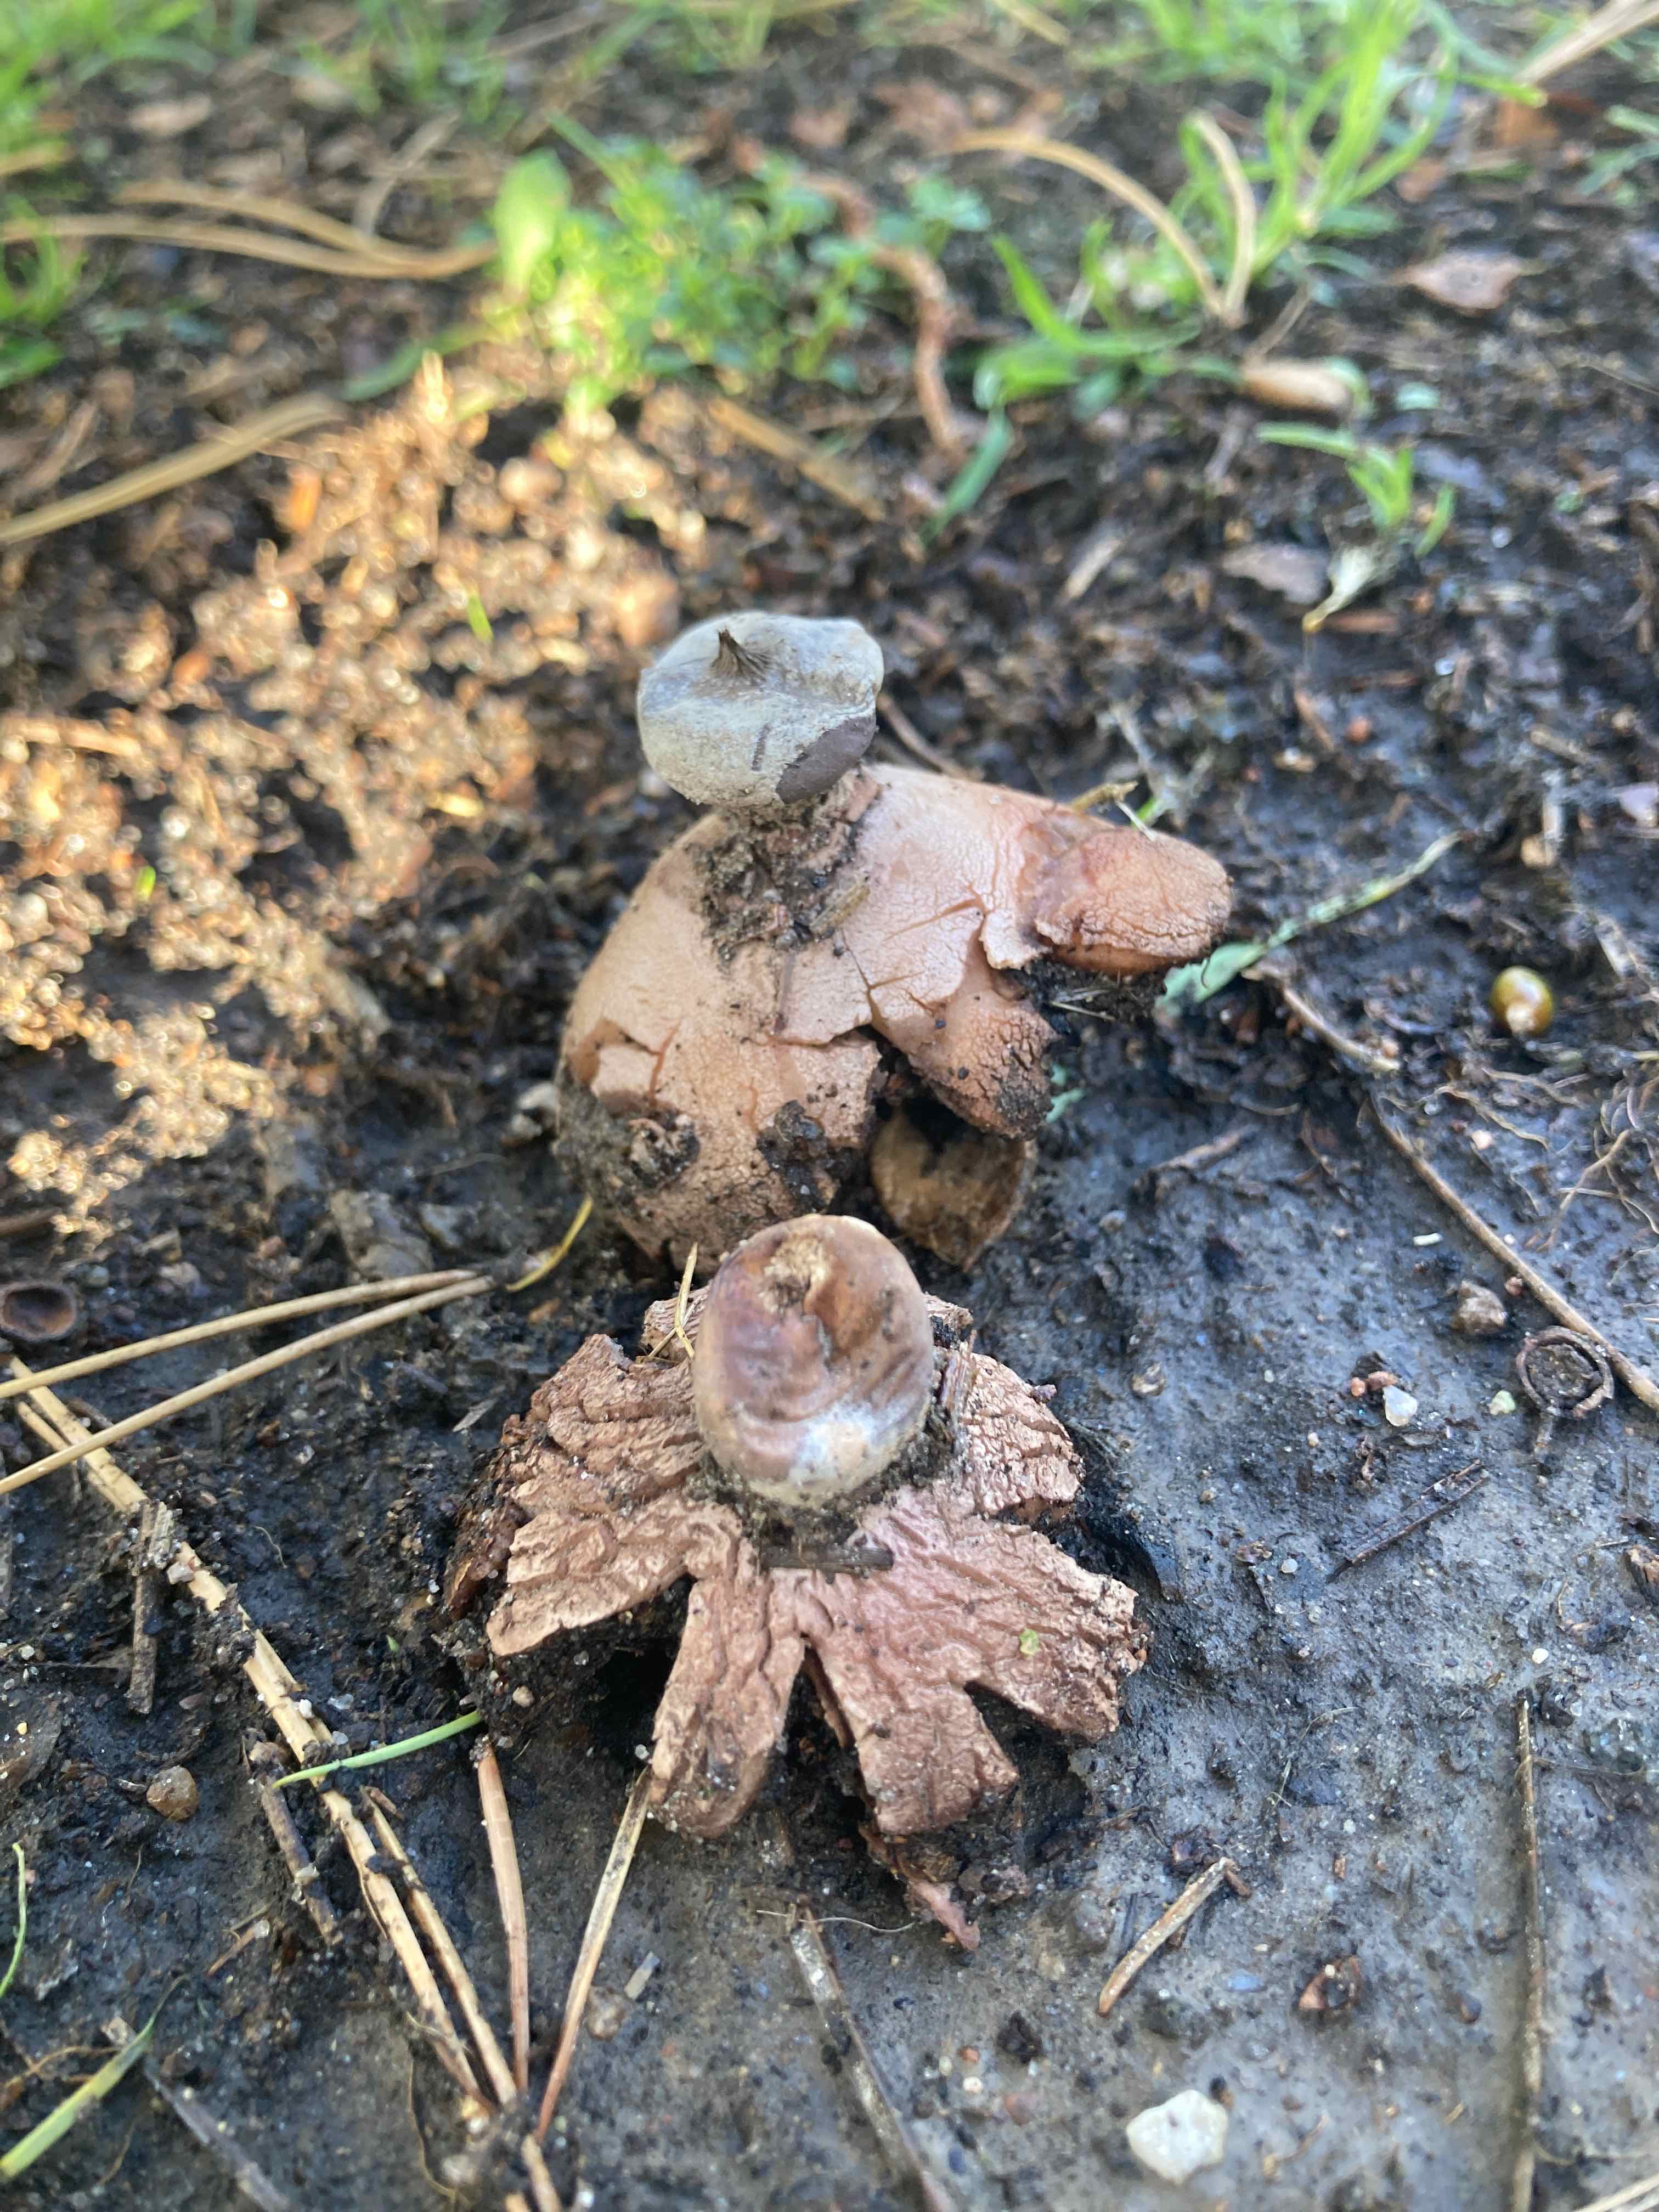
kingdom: Fungi
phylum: Basidiomycota
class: Agaricomycetes
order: Geastrales
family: Geastraceae
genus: Geastrum
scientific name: Geastrum striatum
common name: krave-stjernebold
